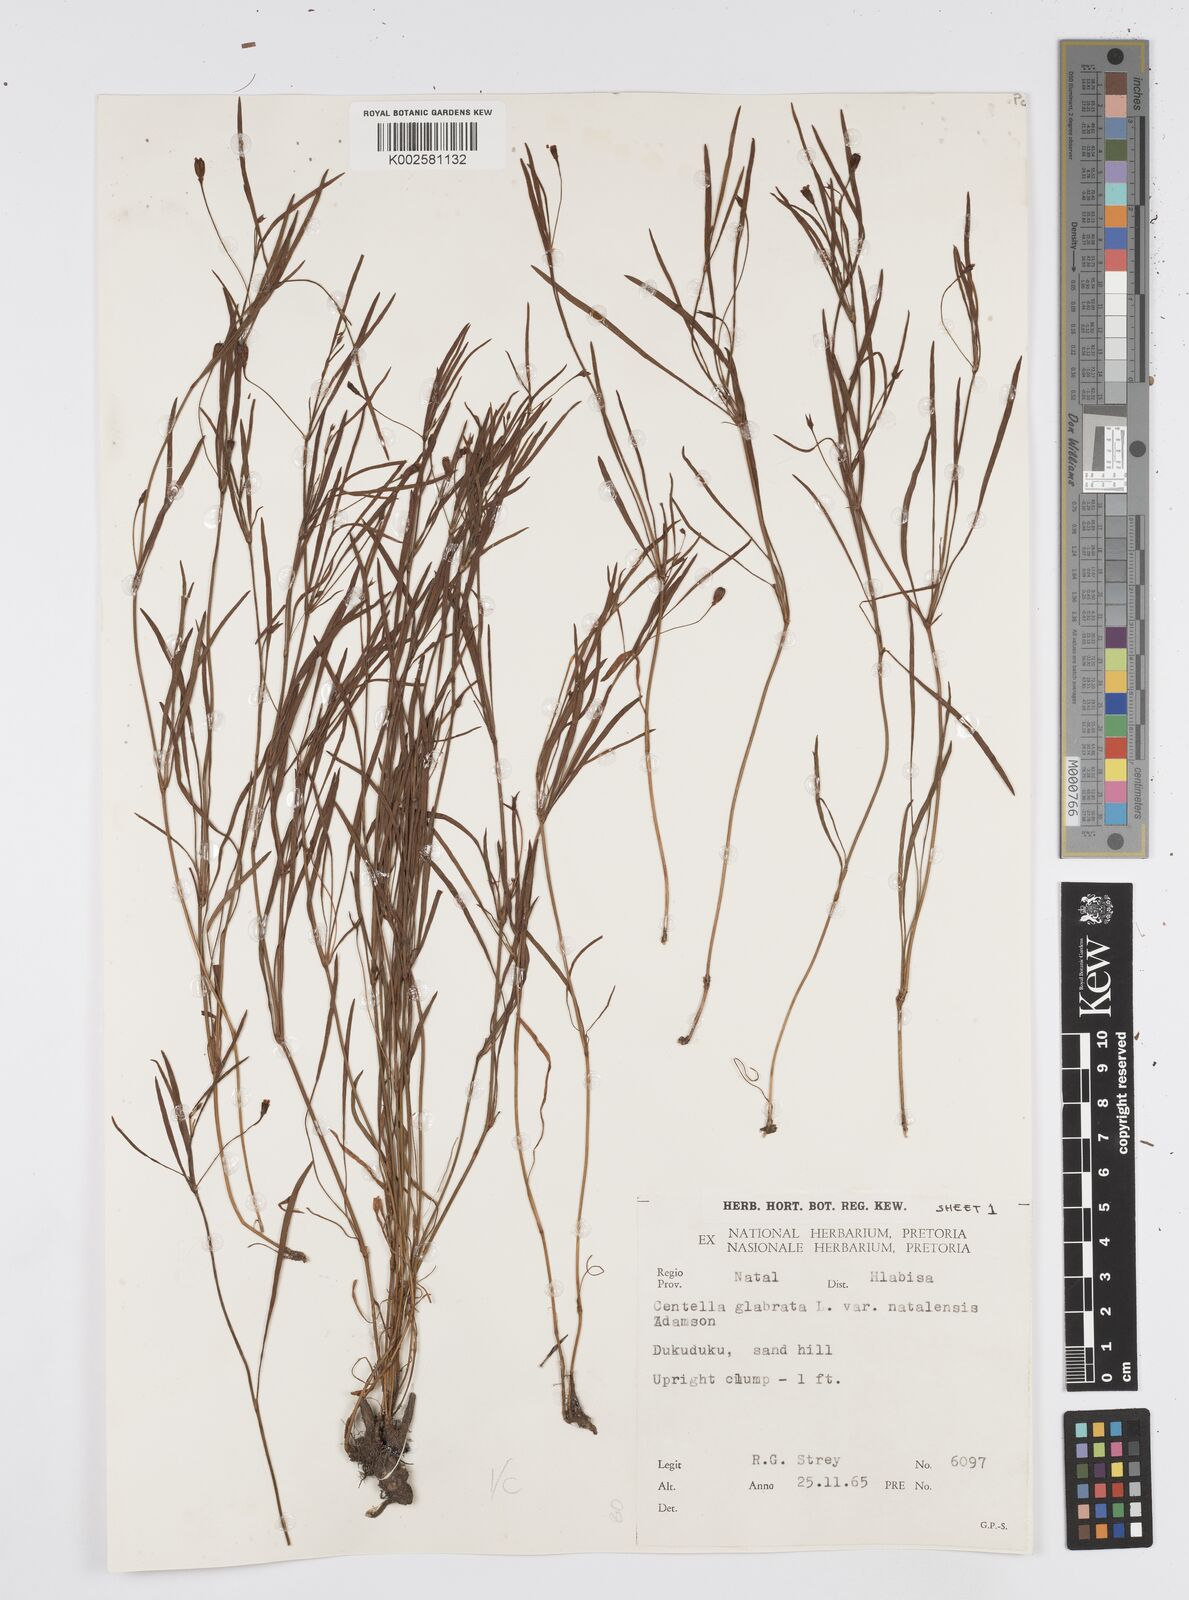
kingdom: Plantae
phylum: Tracheophyta
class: Magnoliopsida
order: Apiales
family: Apiaceae
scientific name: Apiaceae
